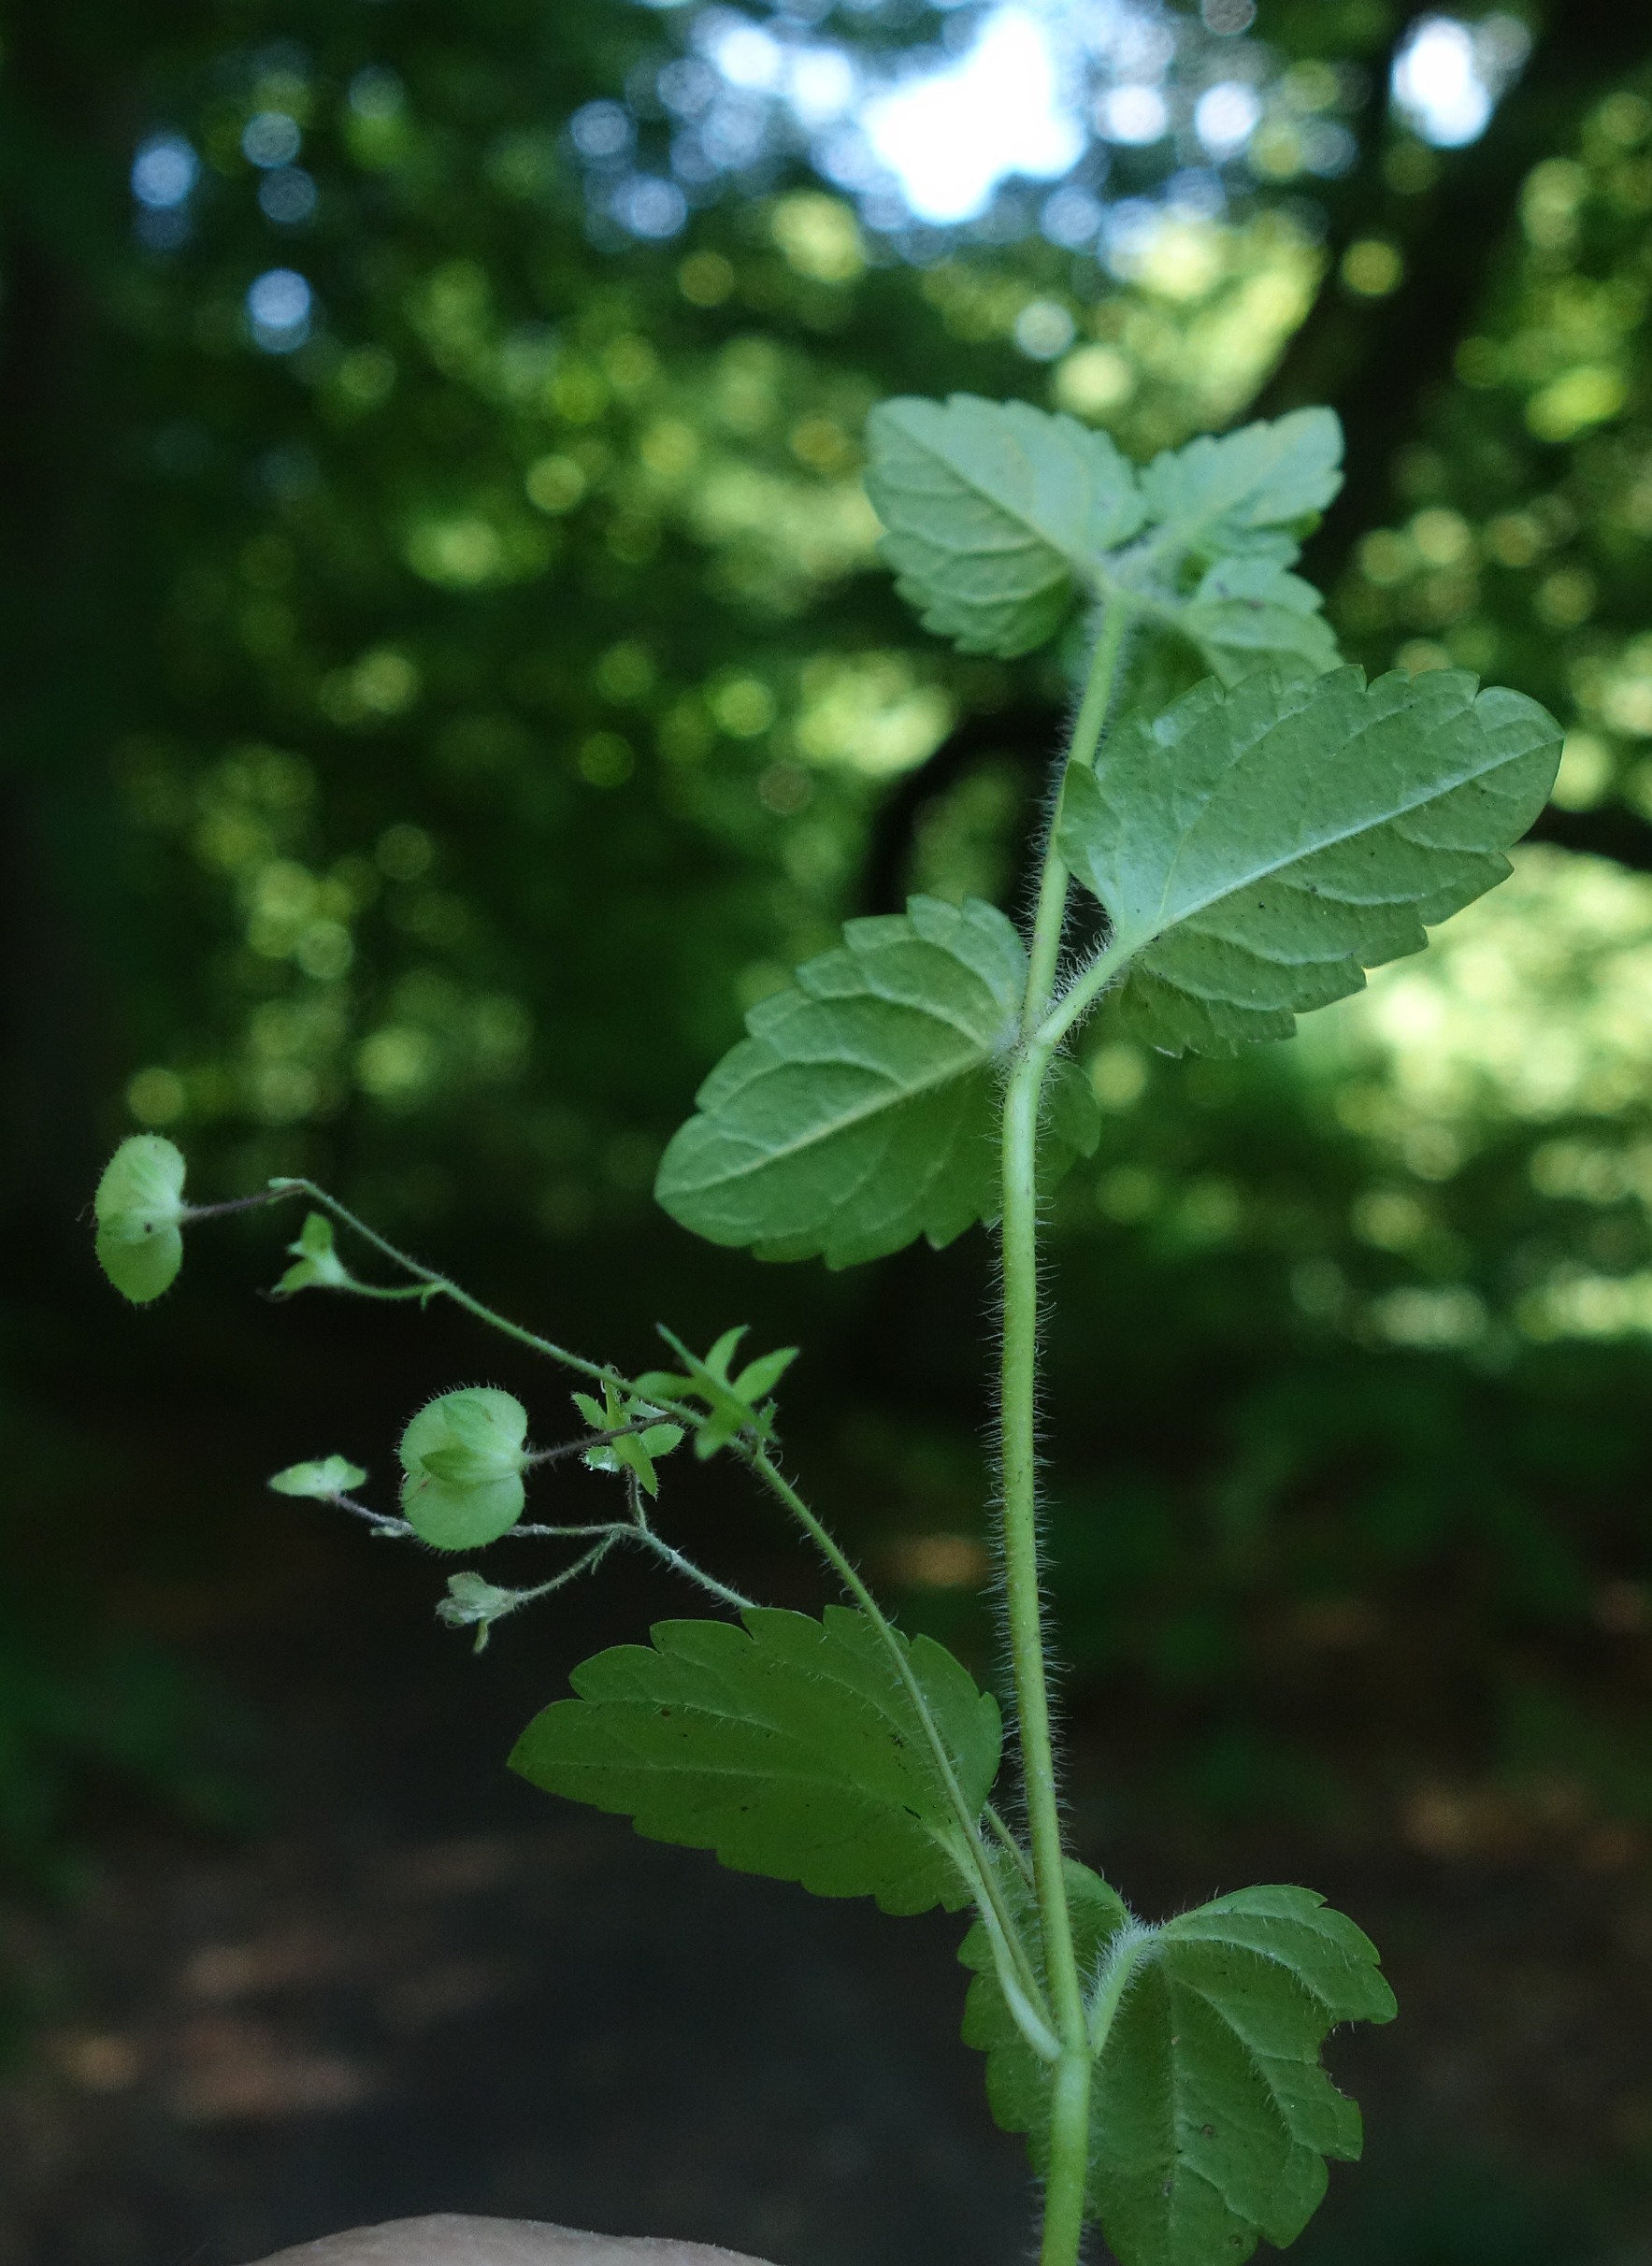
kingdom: Plantae
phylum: Tracheophyta
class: Magnoliopsida
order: Lamiales
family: Plantaginaceae
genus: Veronica
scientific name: Veronica montana
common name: Bjerg-ærenpris
